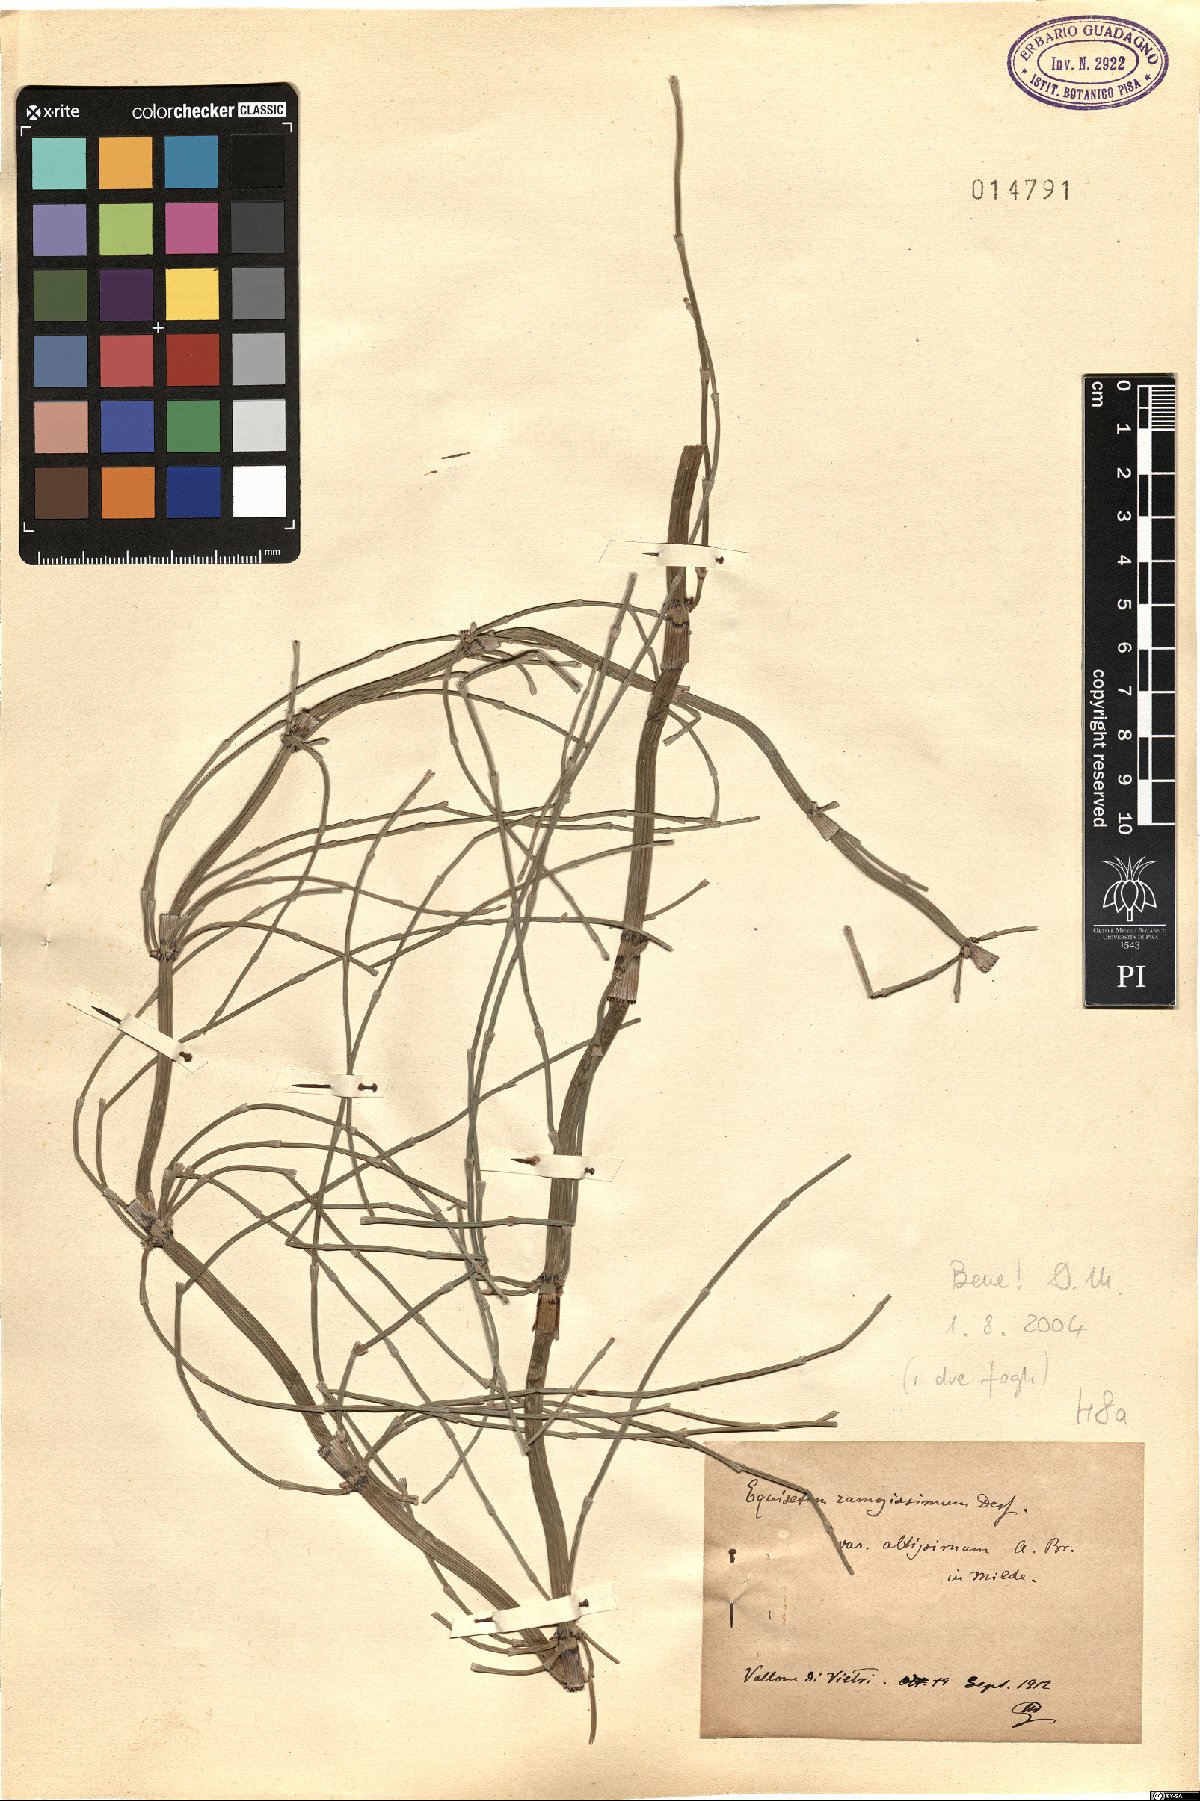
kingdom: Plantae
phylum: Tracheophyta
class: Polypodiopsida
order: Equisetales
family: Equisetaceae
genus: Equisetum
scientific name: Equisetum ramosissimum
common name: Branched horsetail
